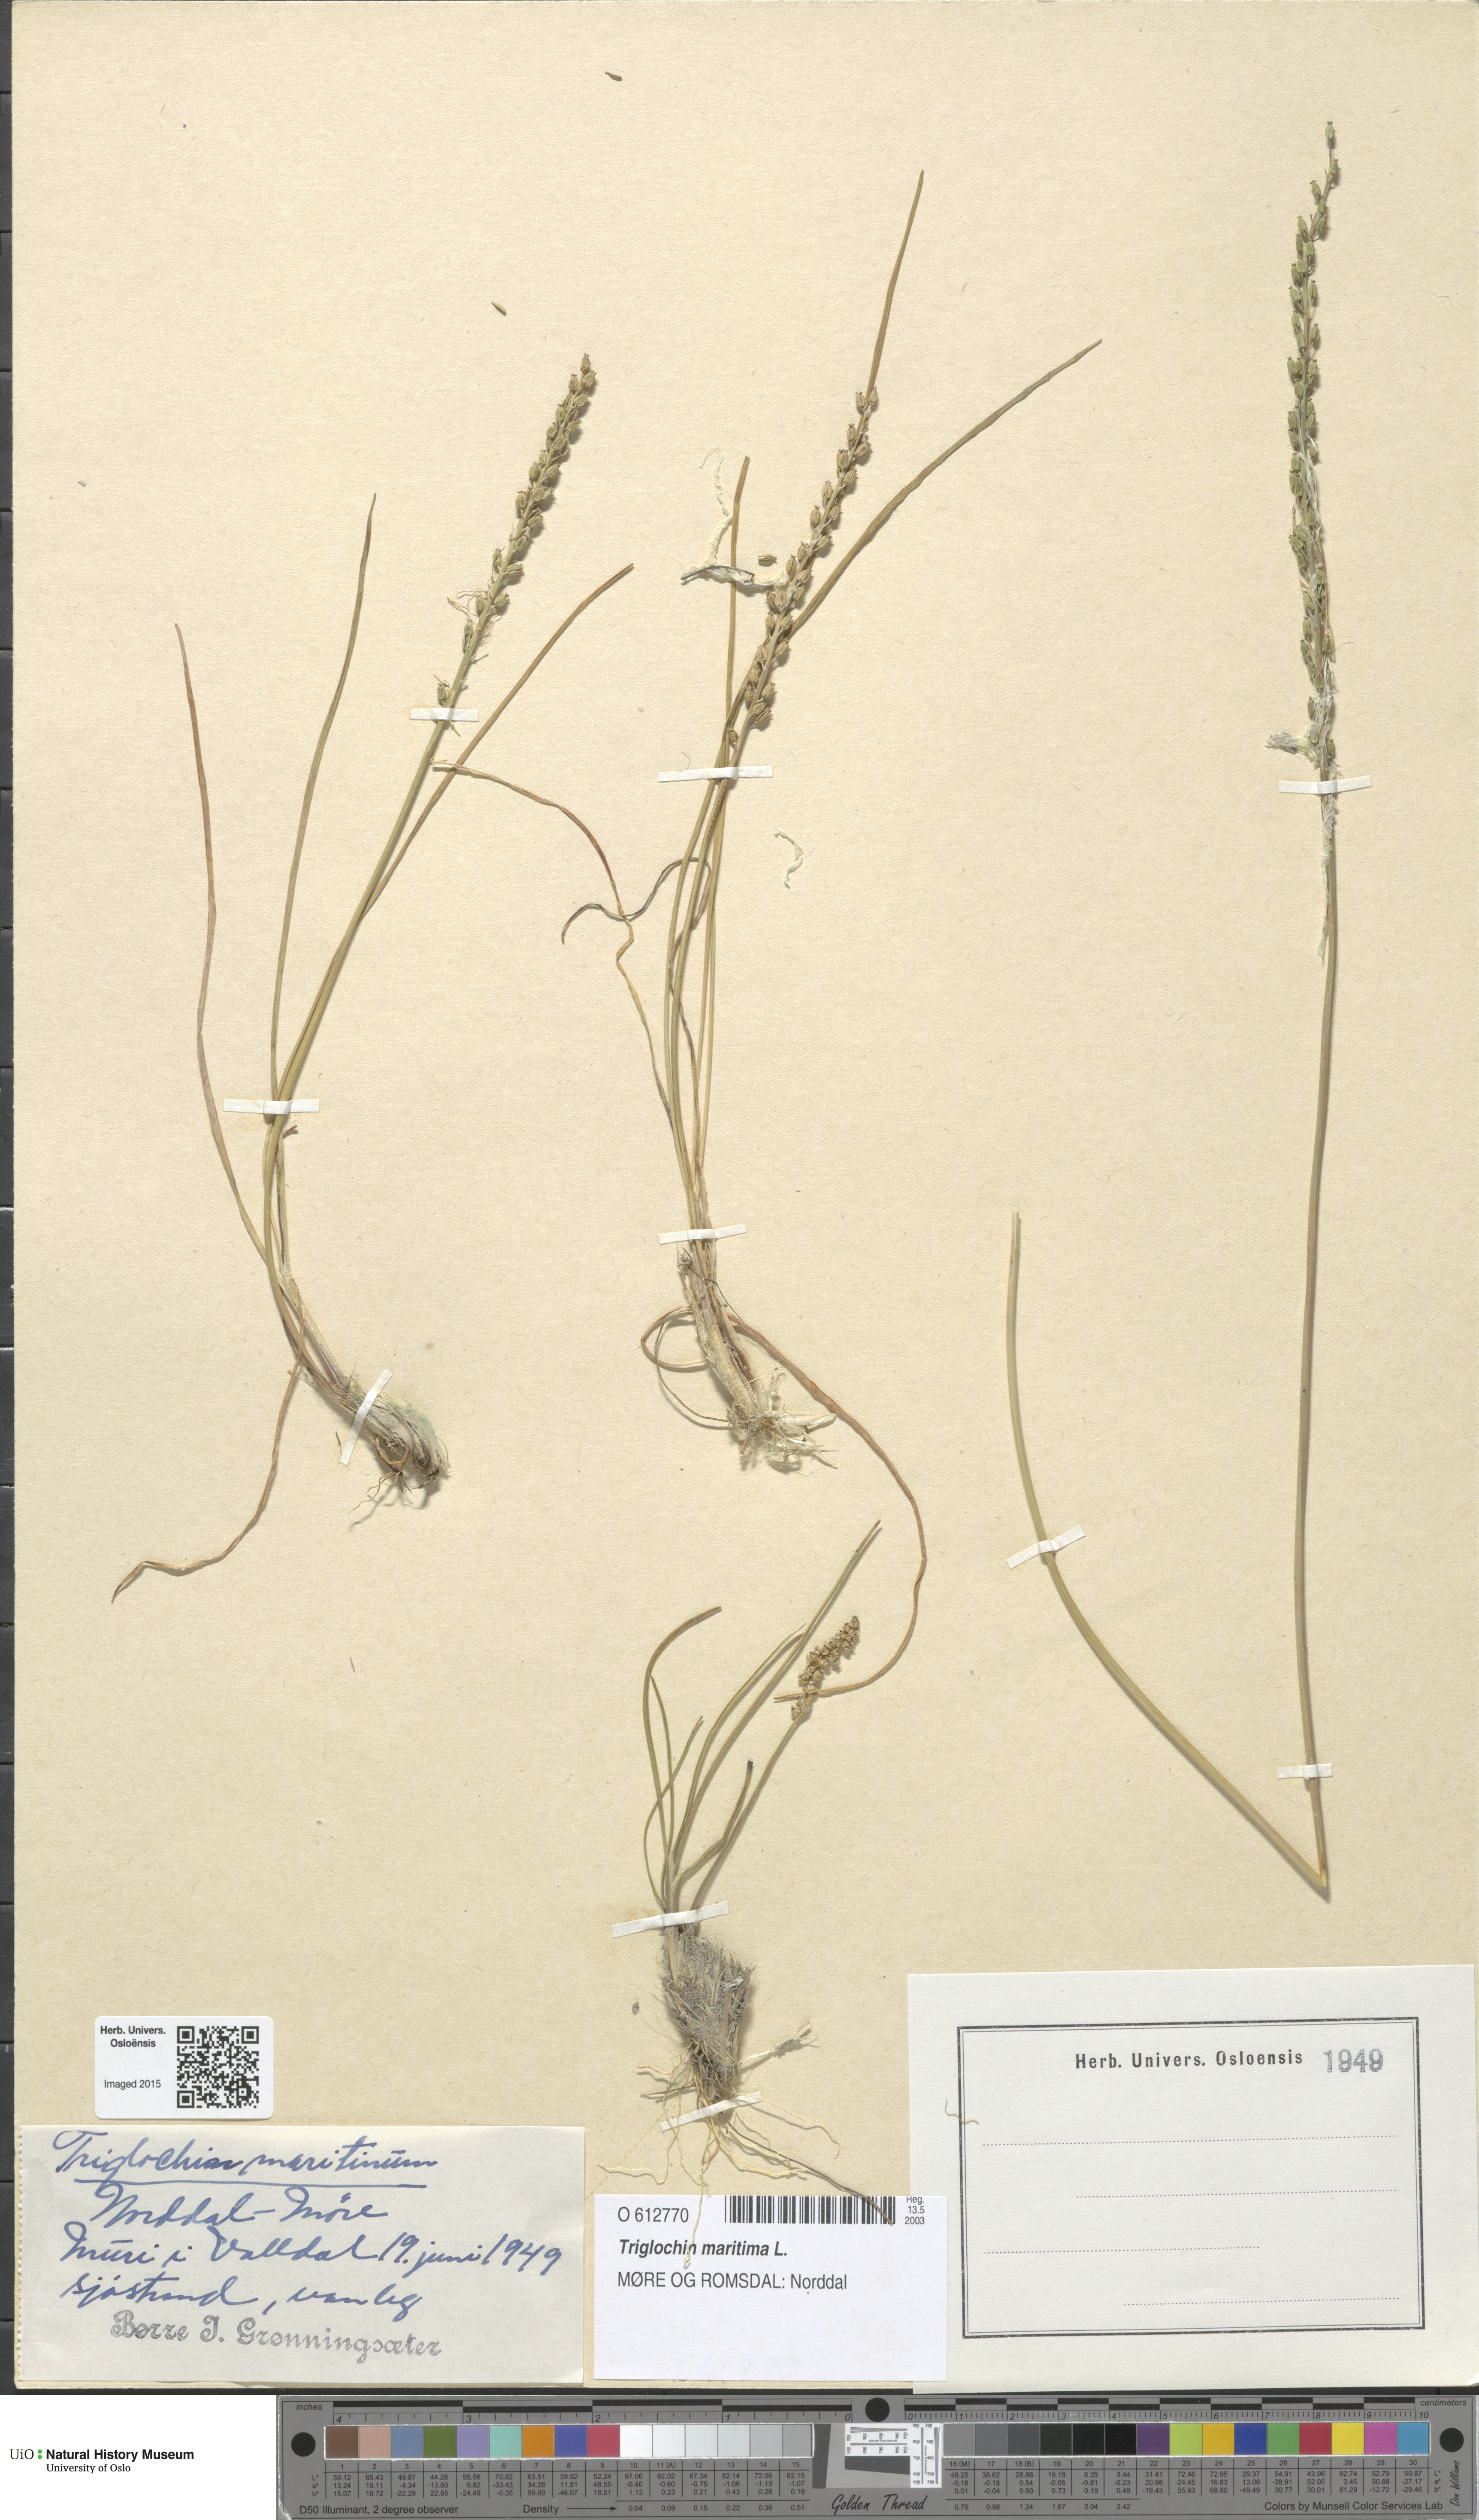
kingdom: Plantae
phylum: Tracheophyta
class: Liliopsida
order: Alismatales
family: Juncaginaceae
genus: Triglochin
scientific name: Triglochin maritima
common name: Sea arrowgrass
